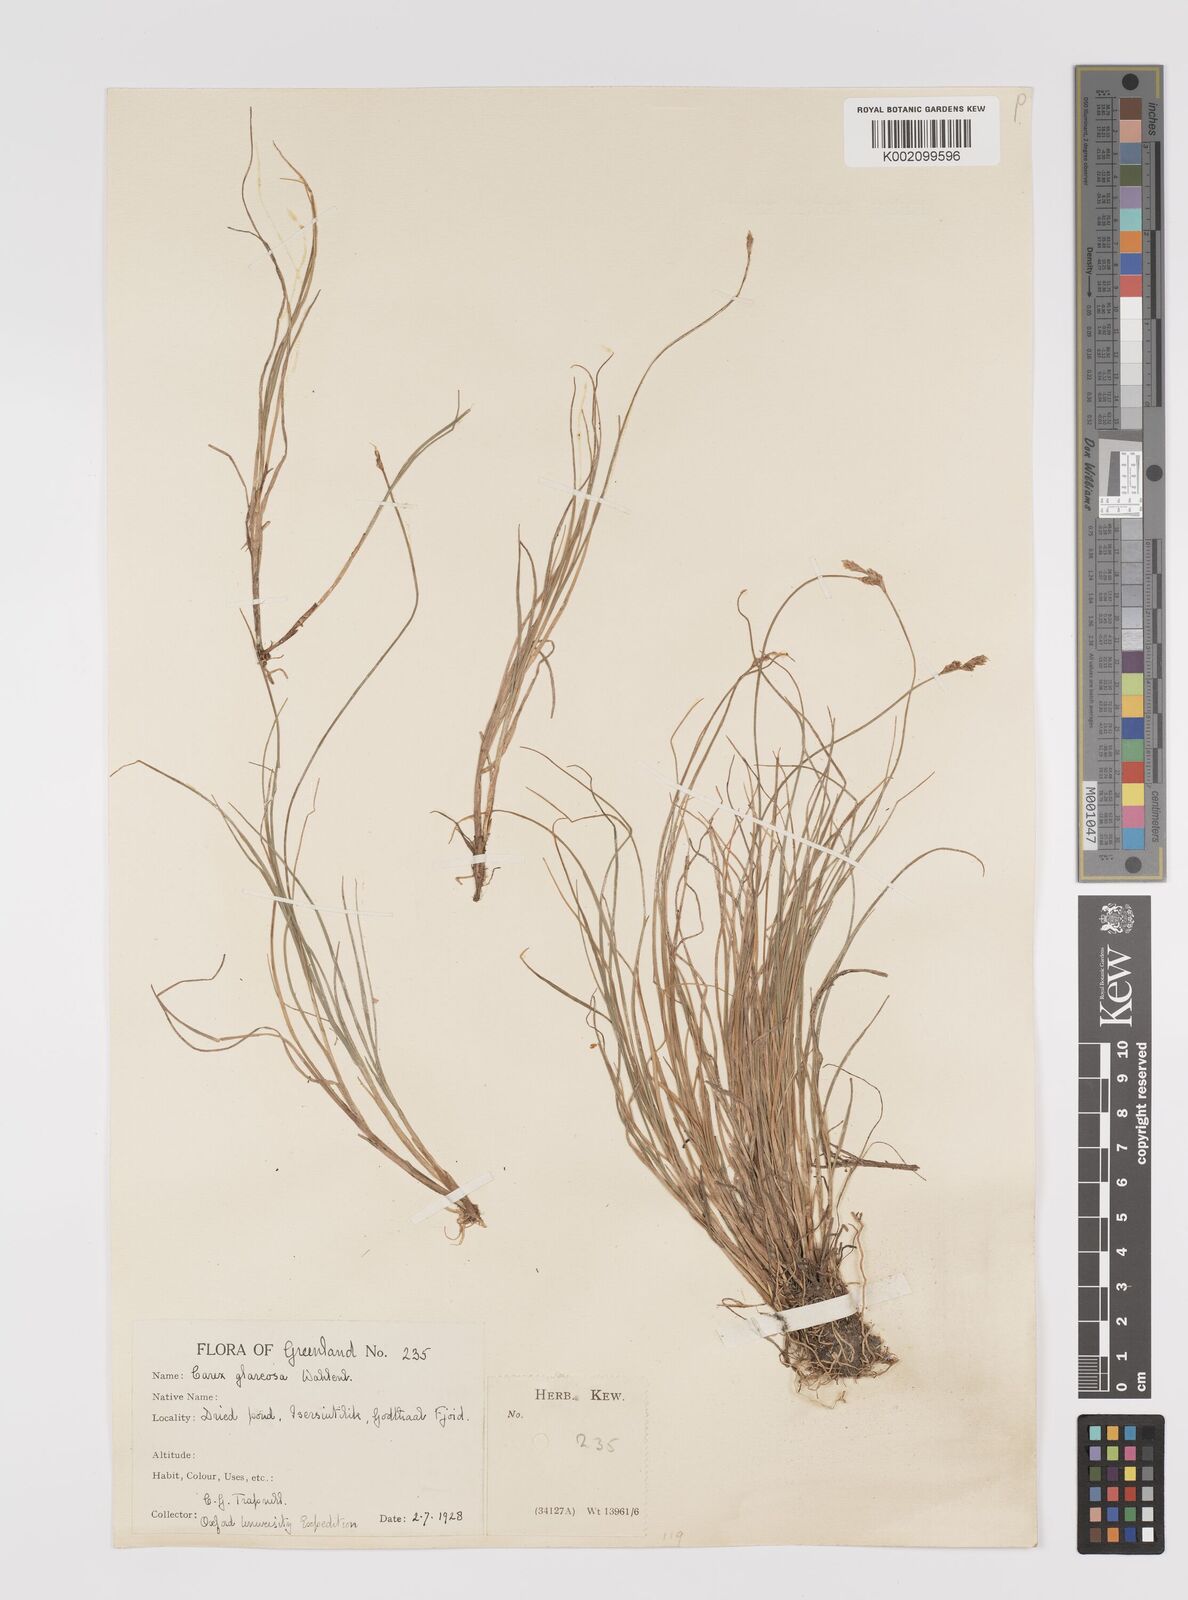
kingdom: Plantae
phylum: Tracheophyta
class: Liliopsida
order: Poales
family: Cyperaceae
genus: Carex
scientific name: Carex glareosa
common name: Clustered sedge
